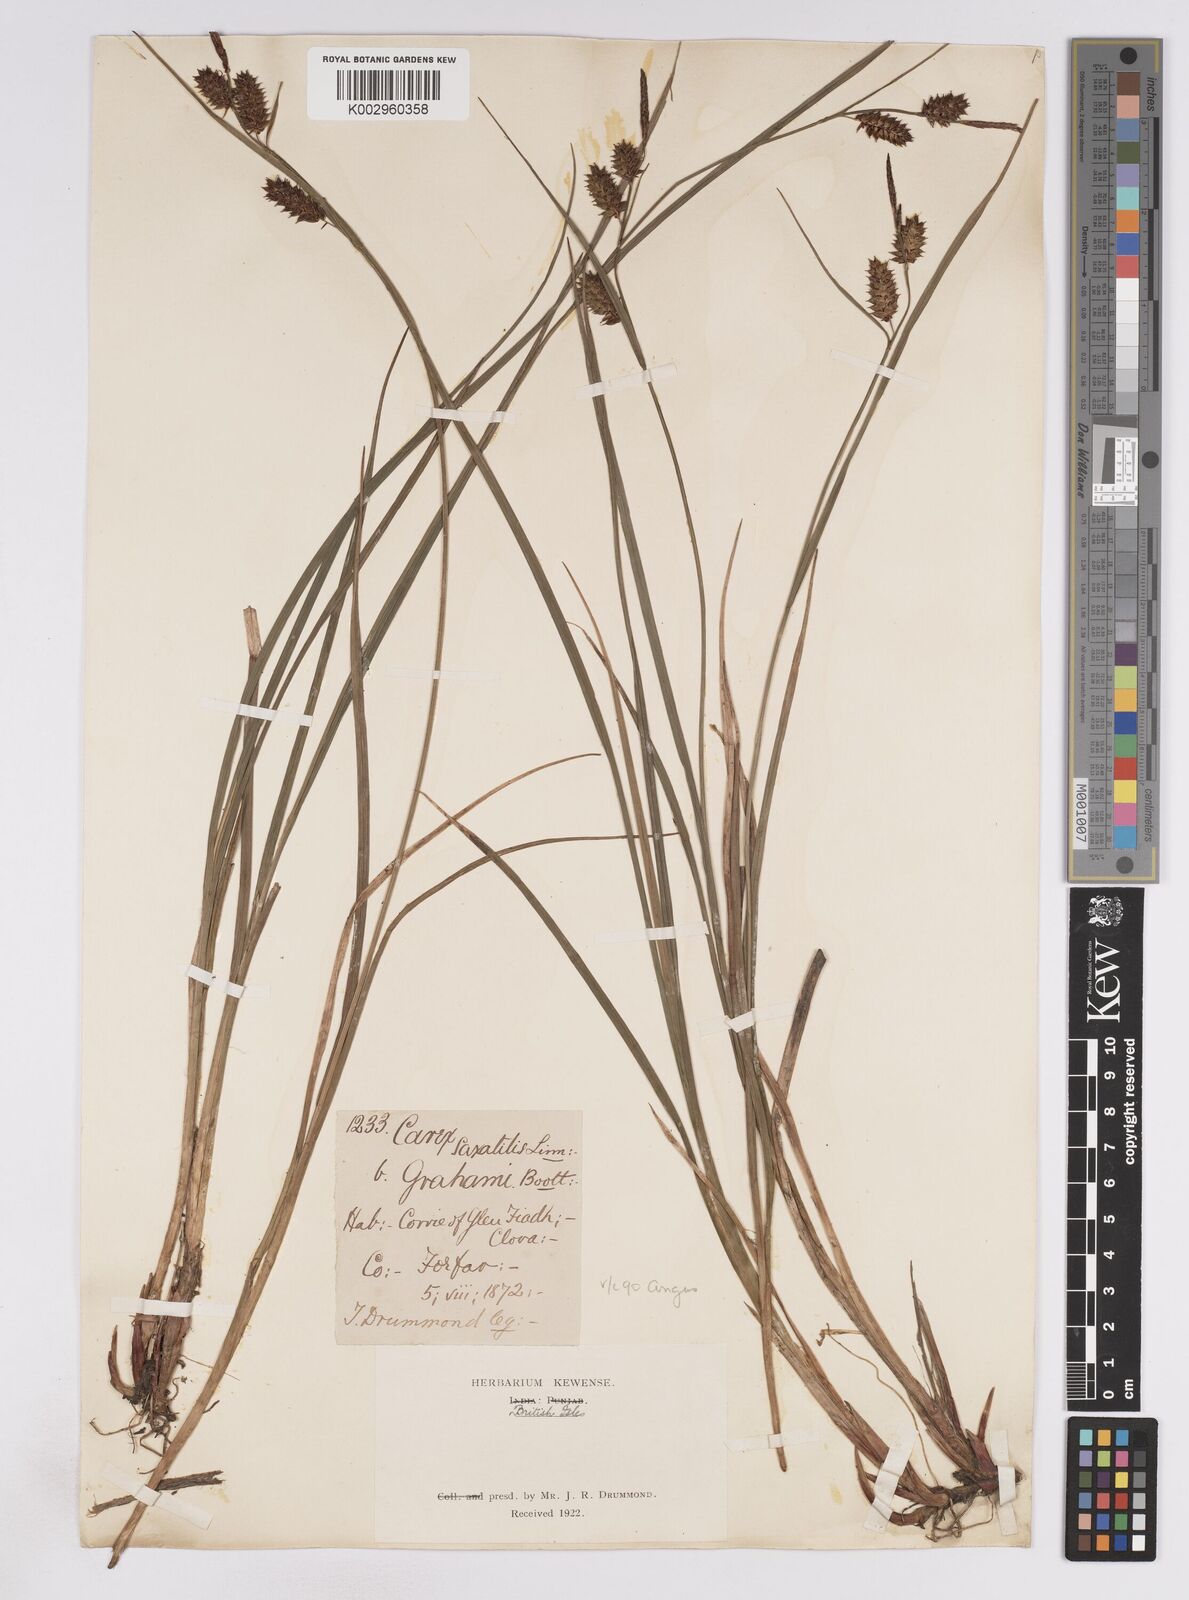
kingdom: Plantae
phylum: Tracheophyta
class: Liliopsida
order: Poales
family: Cyperaceae
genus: Carex
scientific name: Carex vesicaria
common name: Bladder-sedge
